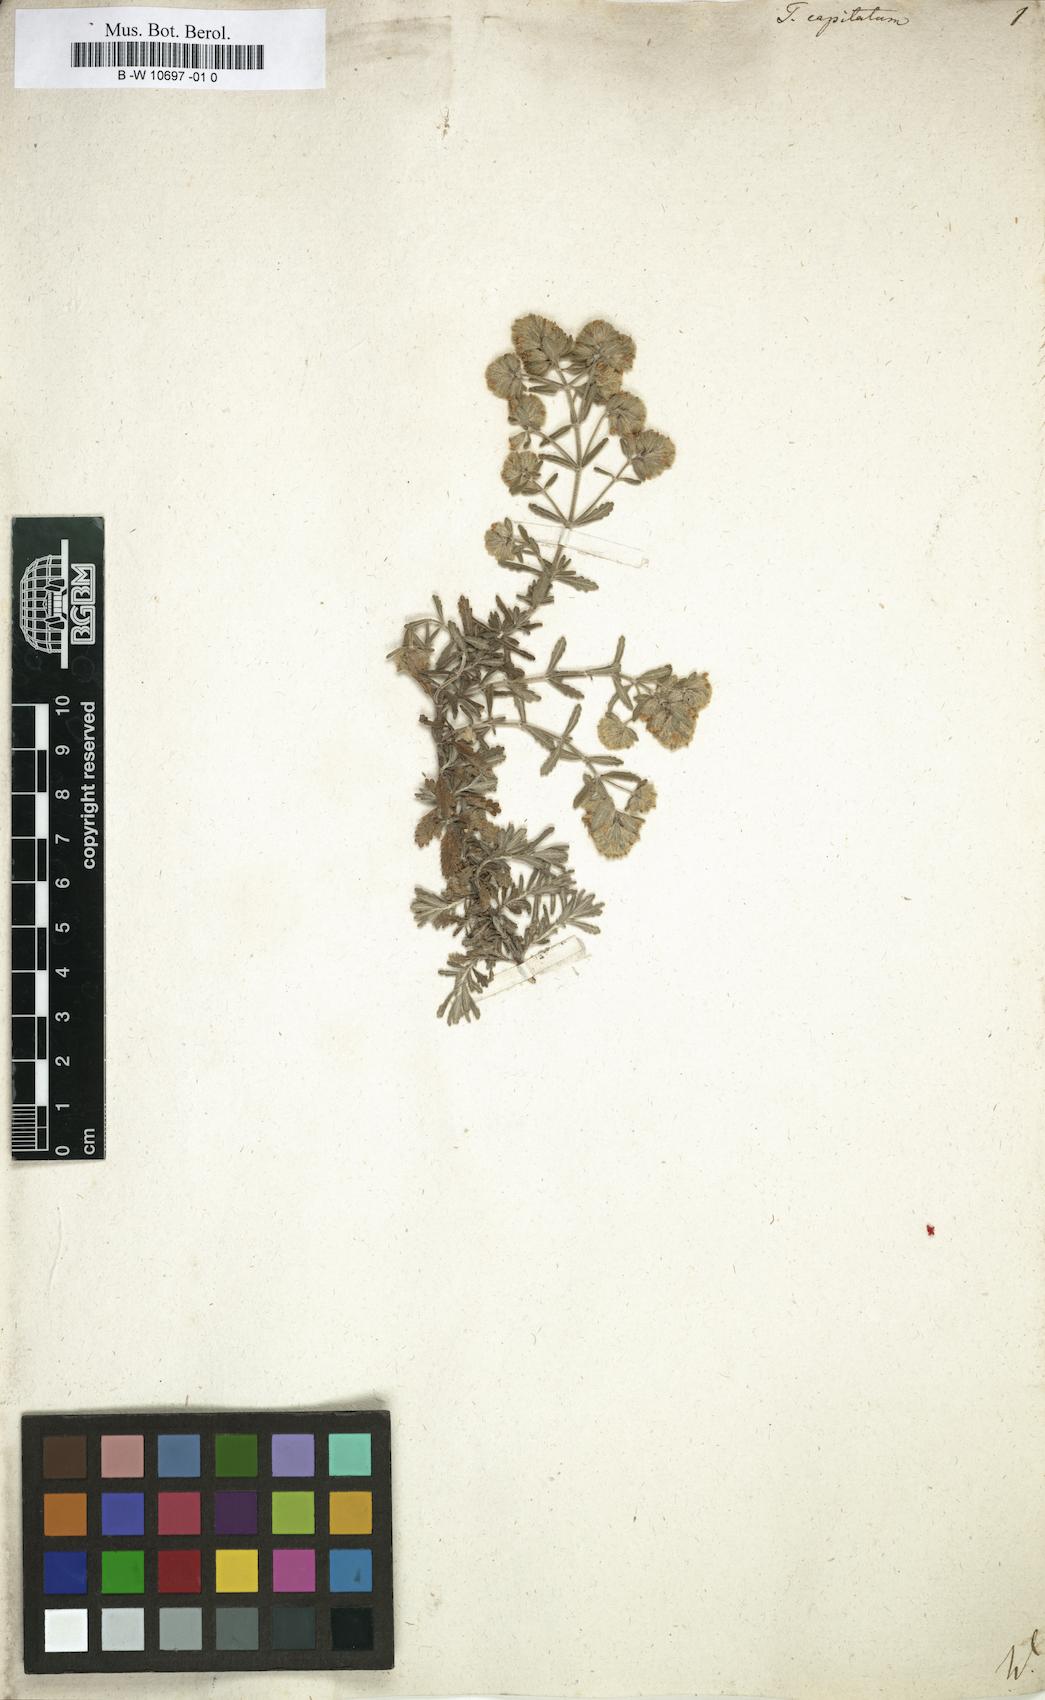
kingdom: Plantae
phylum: Tracheophyta
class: Magnoliopsida
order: Lamiales
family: Lamiaceae
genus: Teucrium
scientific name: Teucrium capitatum
